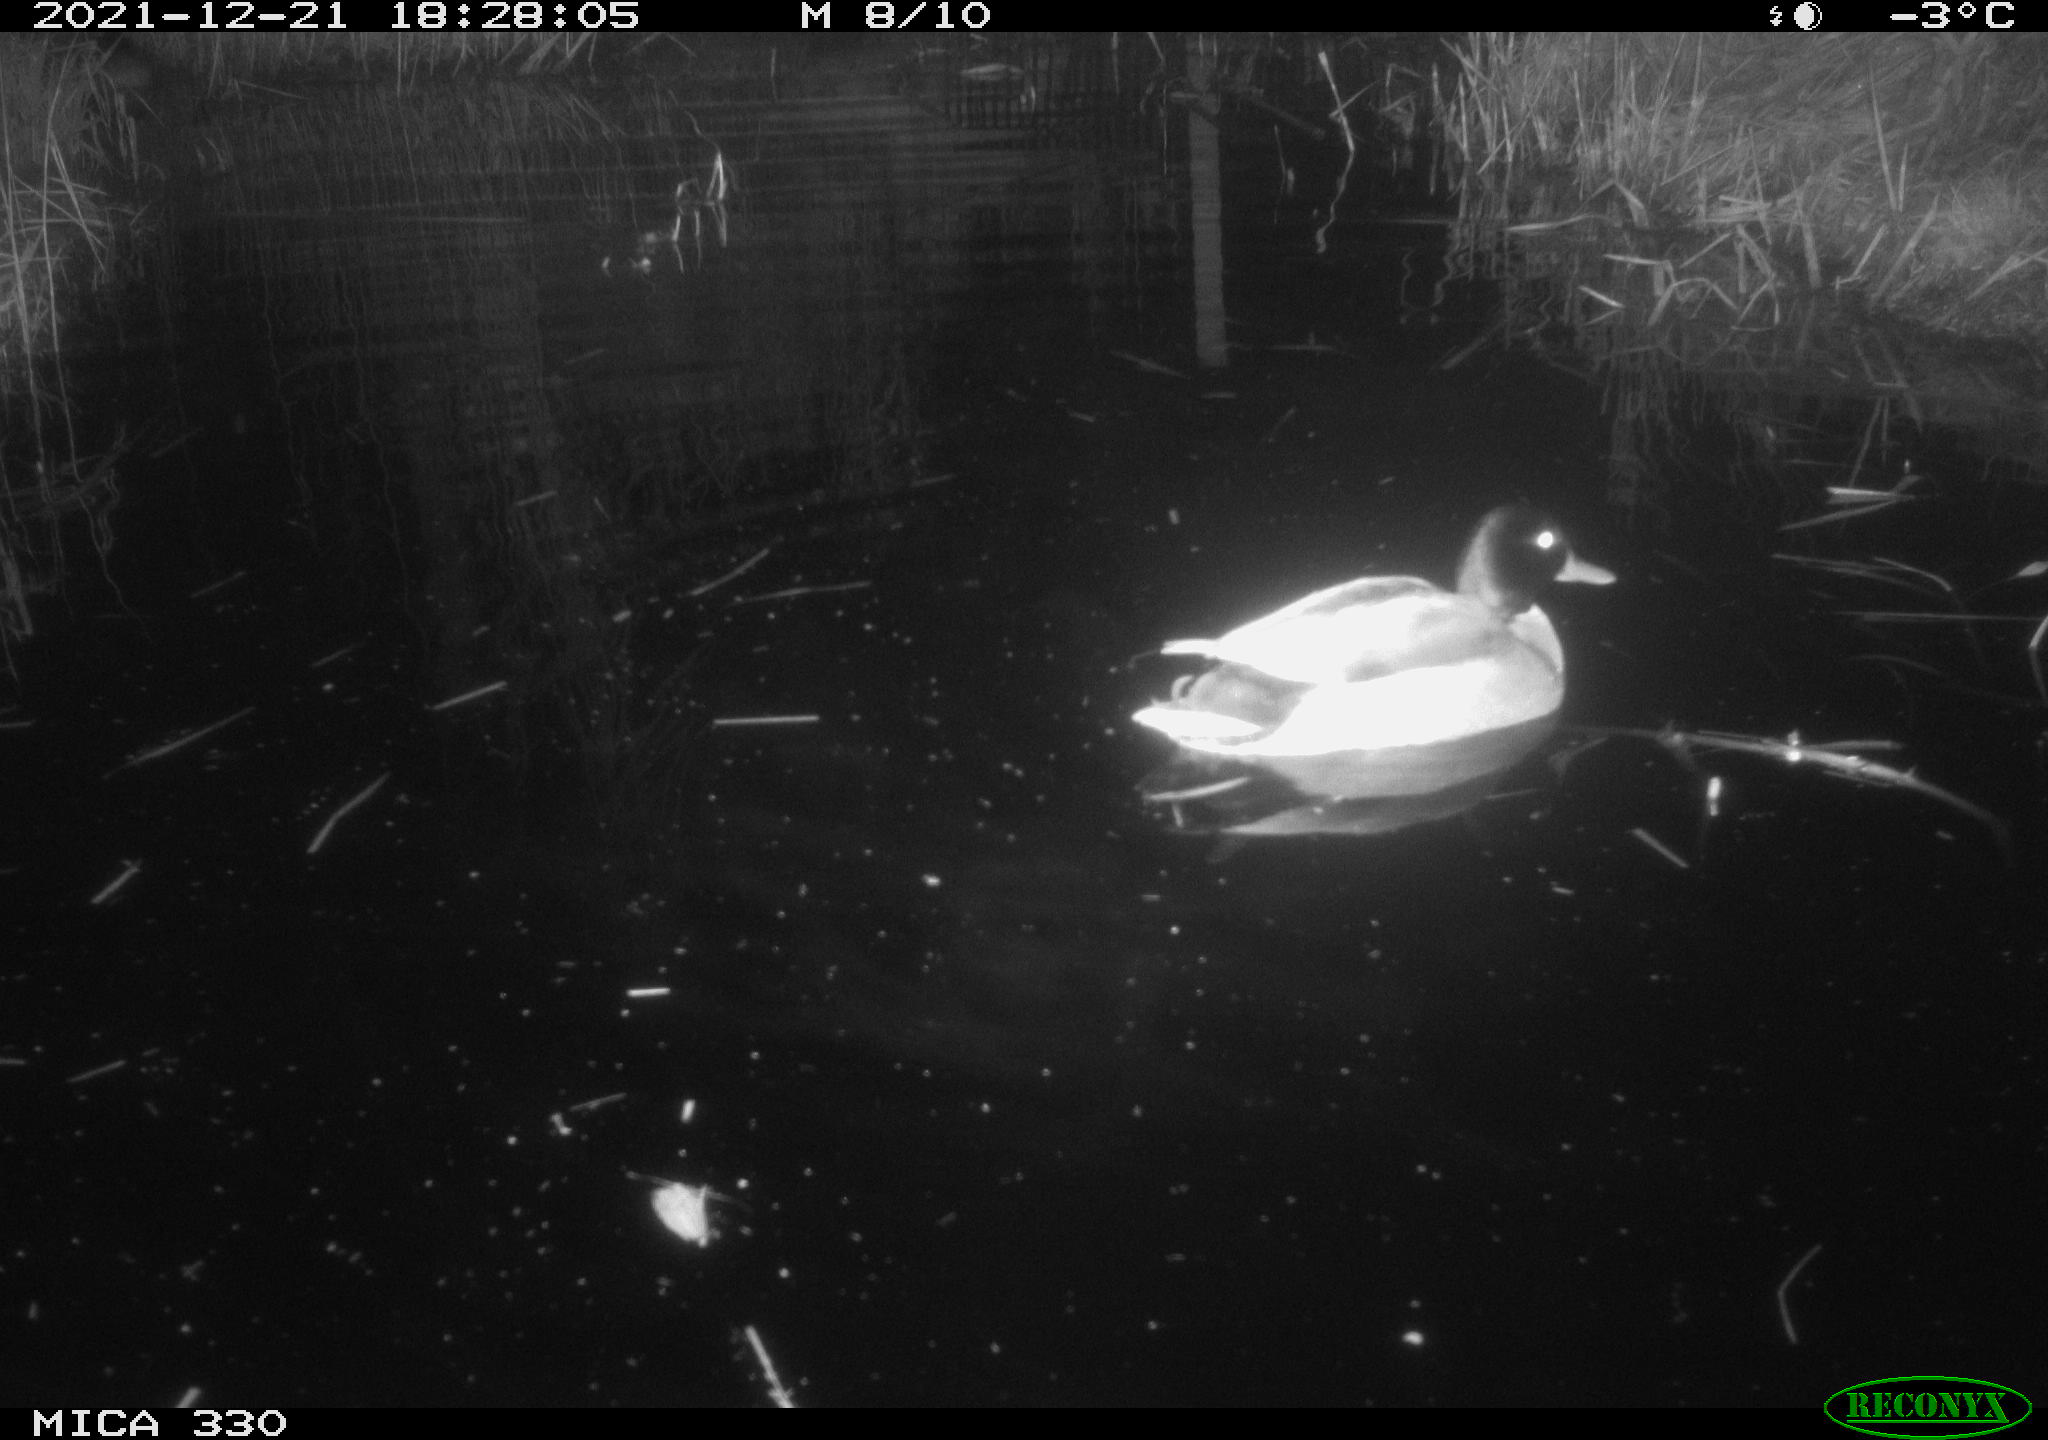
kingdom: Animalia
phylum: Chordata
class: Aves
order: Anseriformes
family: Anatidae
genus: Anas
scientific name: Anas platyrhynchos
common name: Mallard
